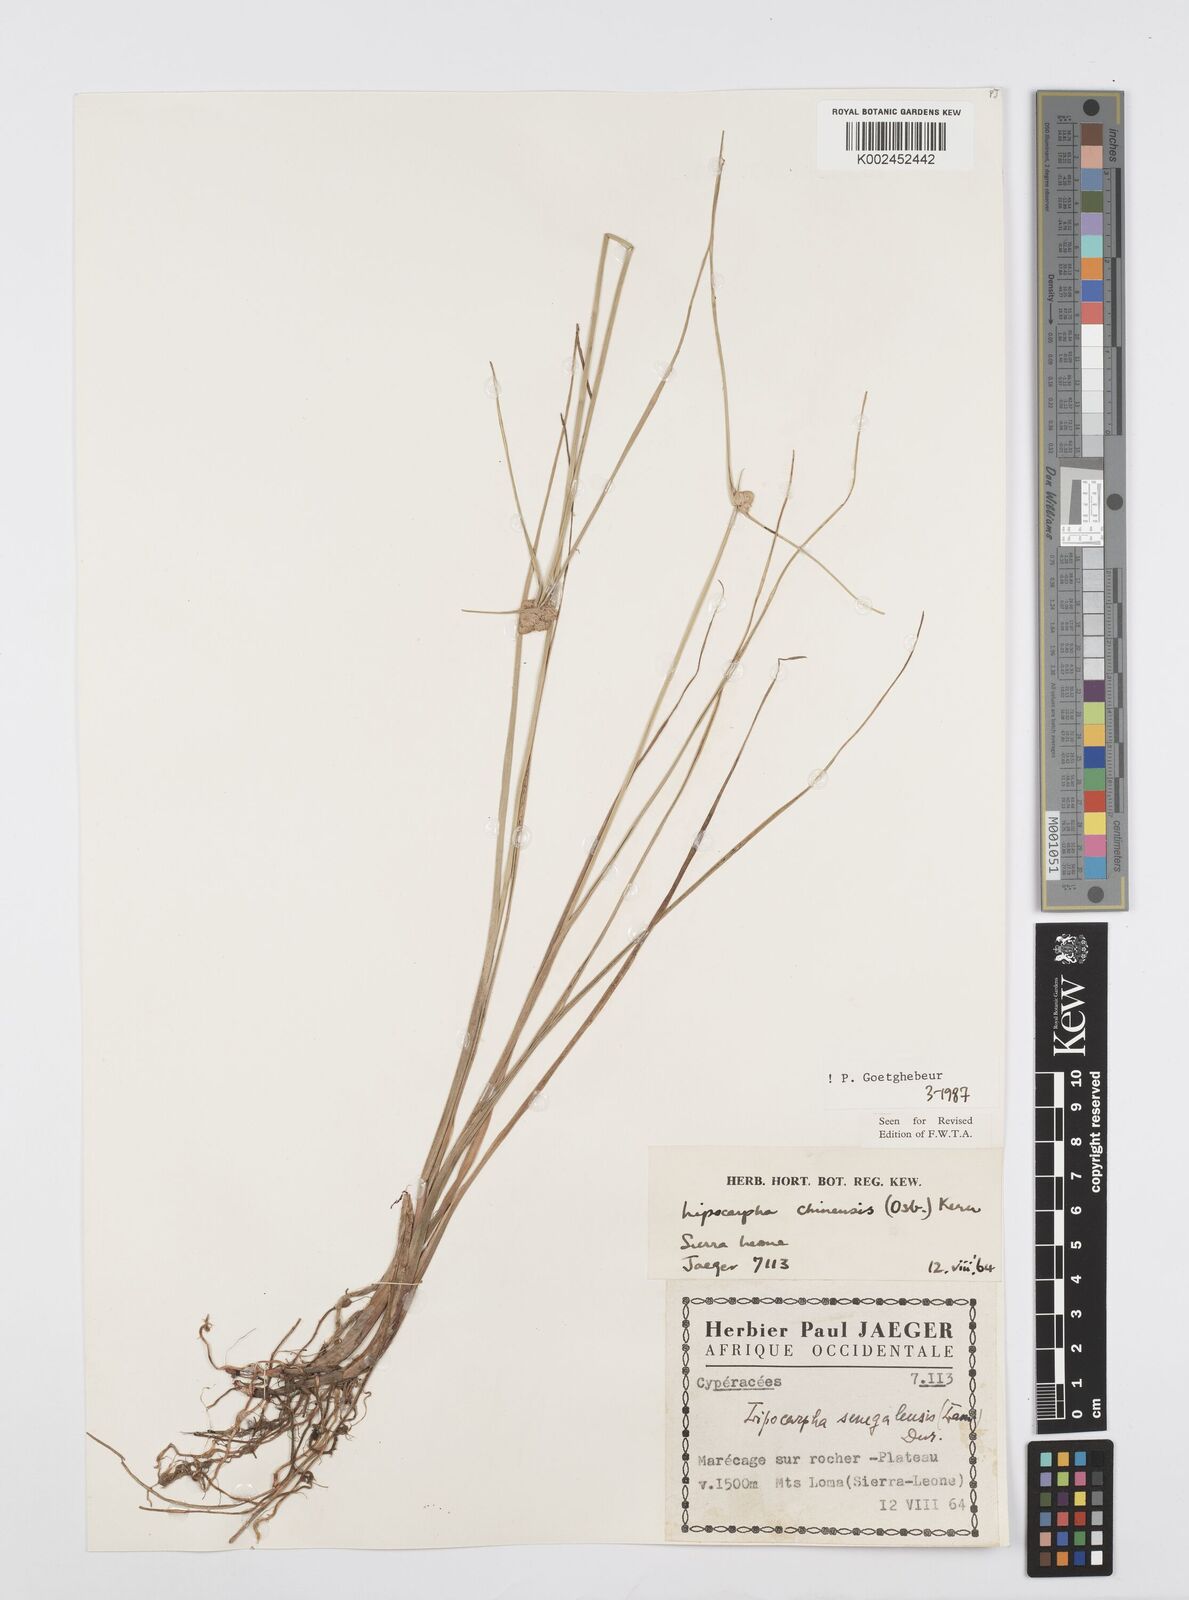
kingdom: Plantae
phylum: Tracheophyta
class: Liliopsida
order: Poales
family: Cyperaceae
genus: Cyperus
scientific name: Cyperus albescens
